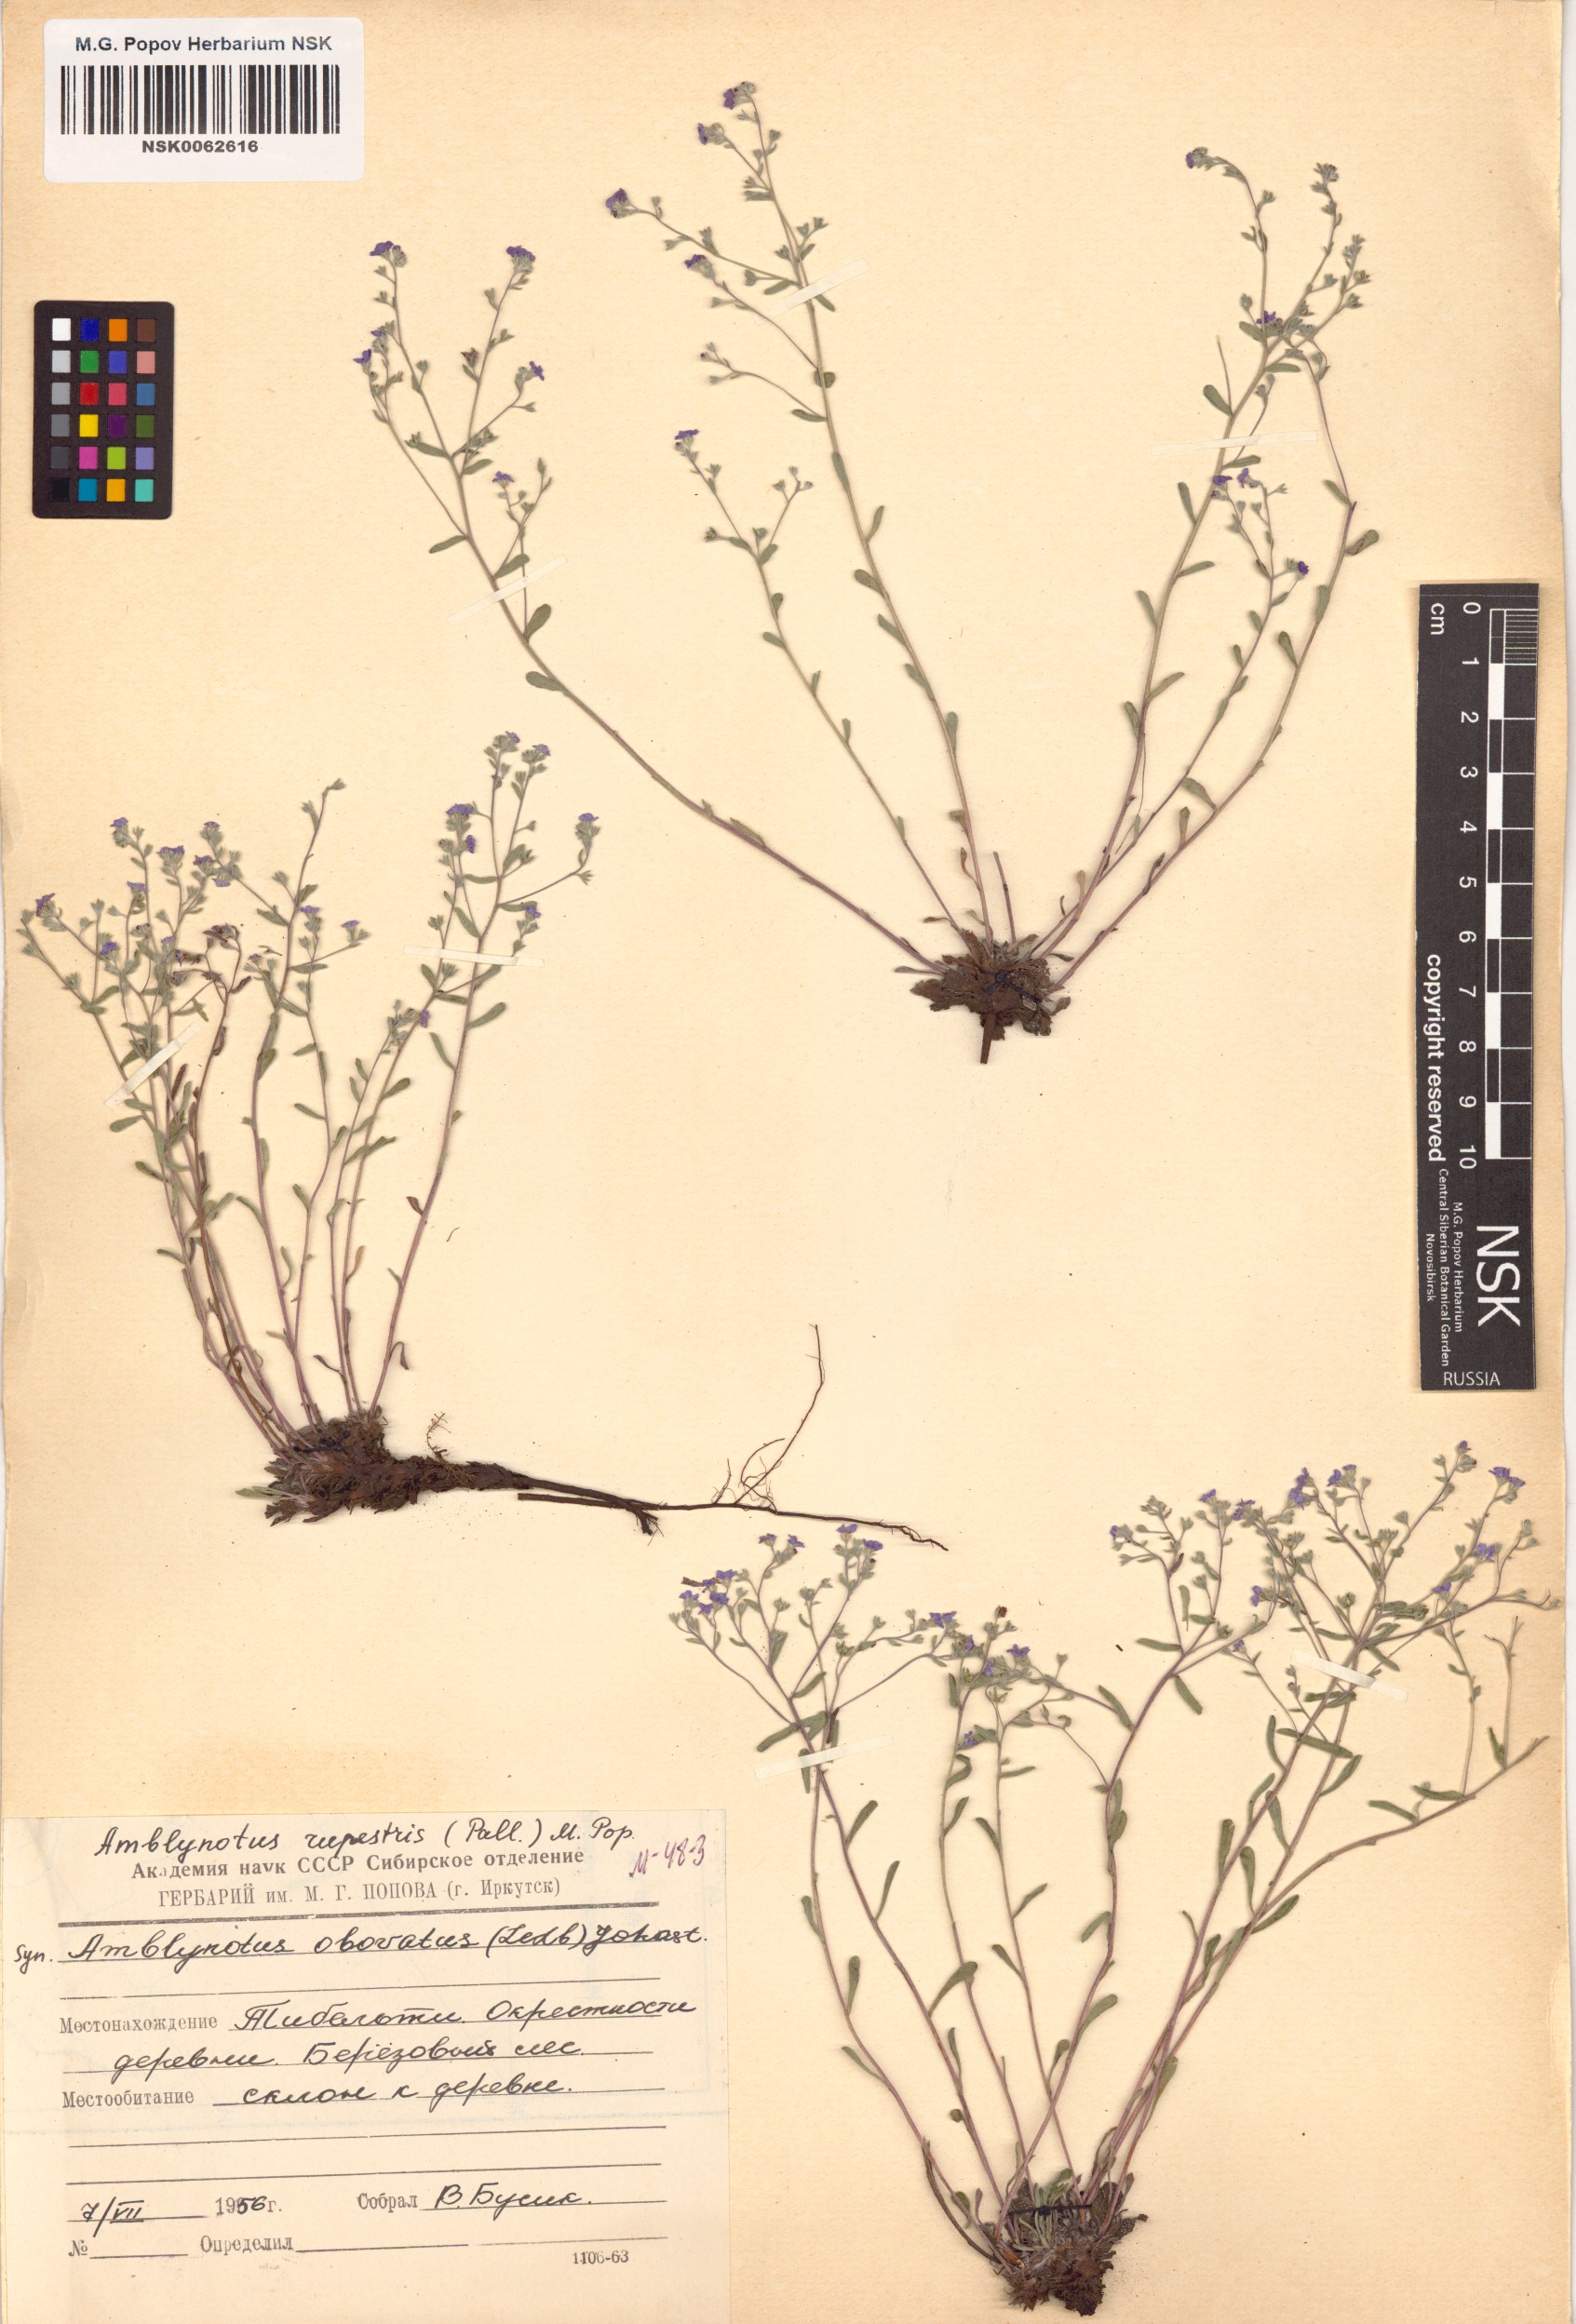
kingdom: Plantae
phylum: Tracheophyta
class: Magnoliopsida
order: Boraginales
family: Boraginaceae
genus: Eritrichium
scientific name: Eritrichium rupestre
